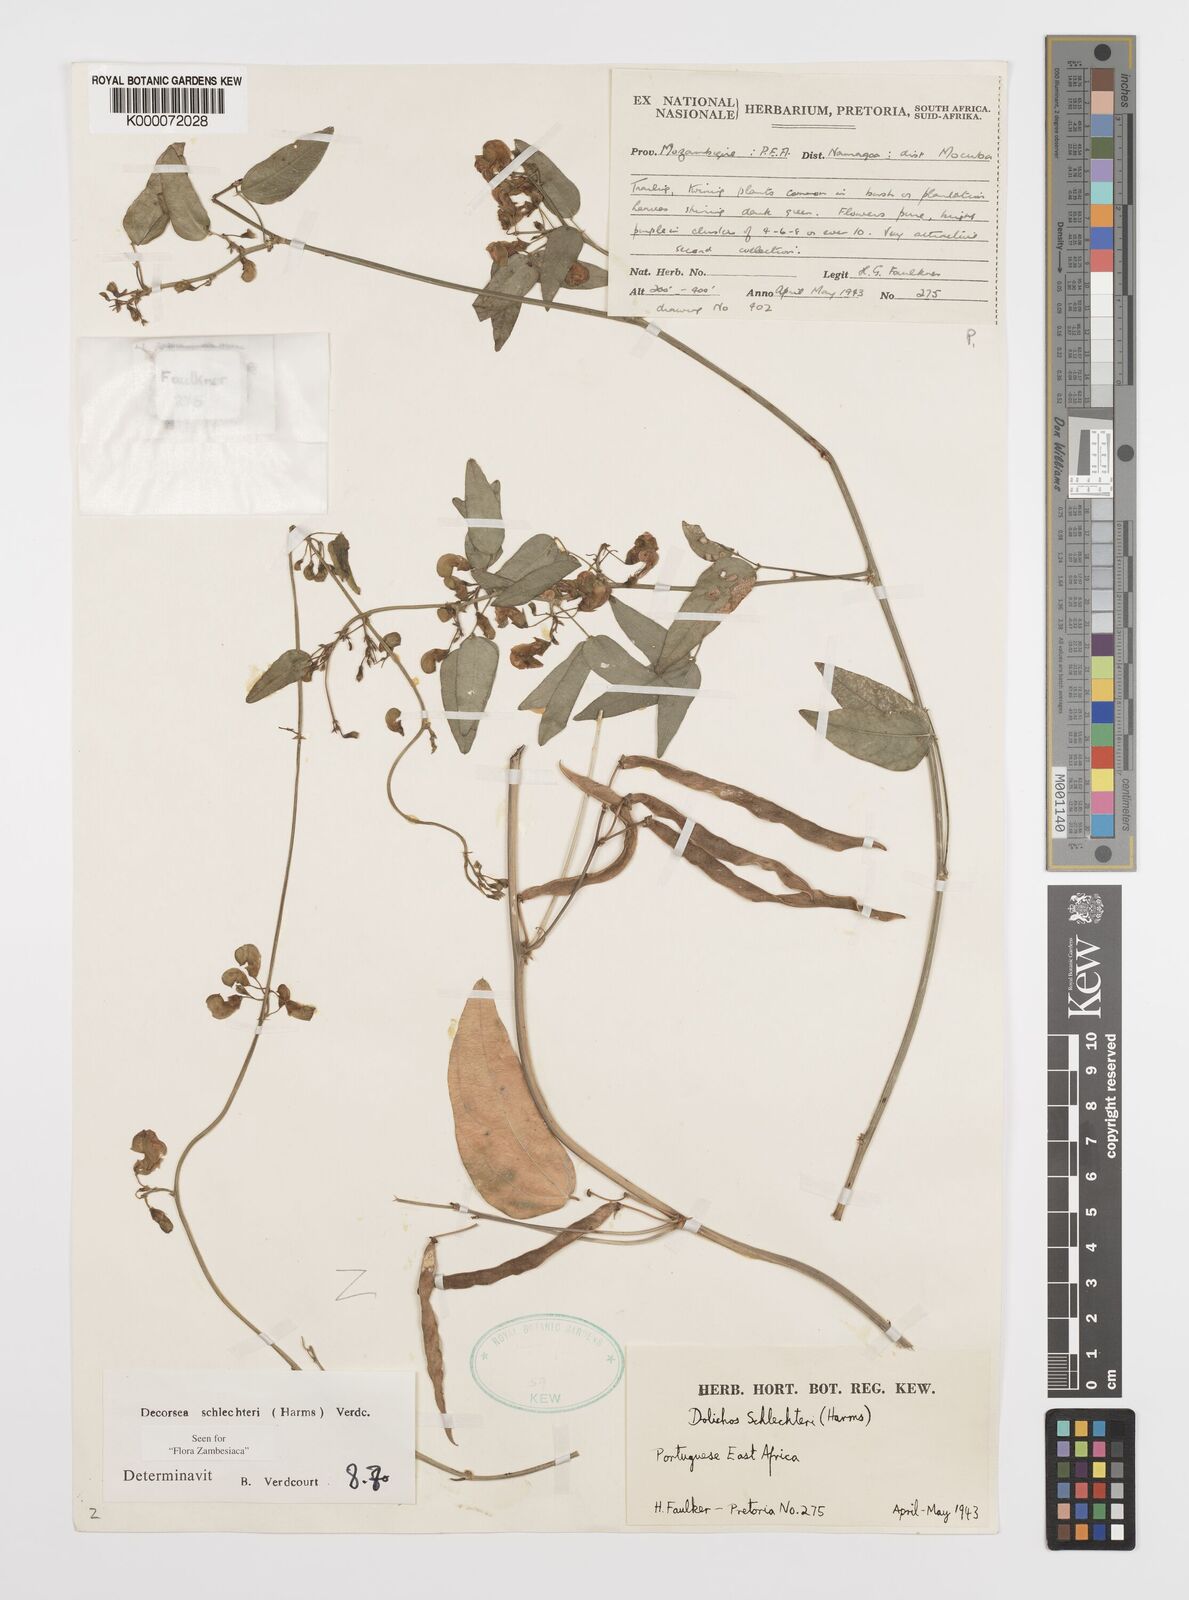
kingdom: Plantae
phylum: Tracheophyta
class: Magnoliopsida
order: Fabales
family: Fabaceae
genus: Decorsea
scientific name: Decorsea schlechteri
